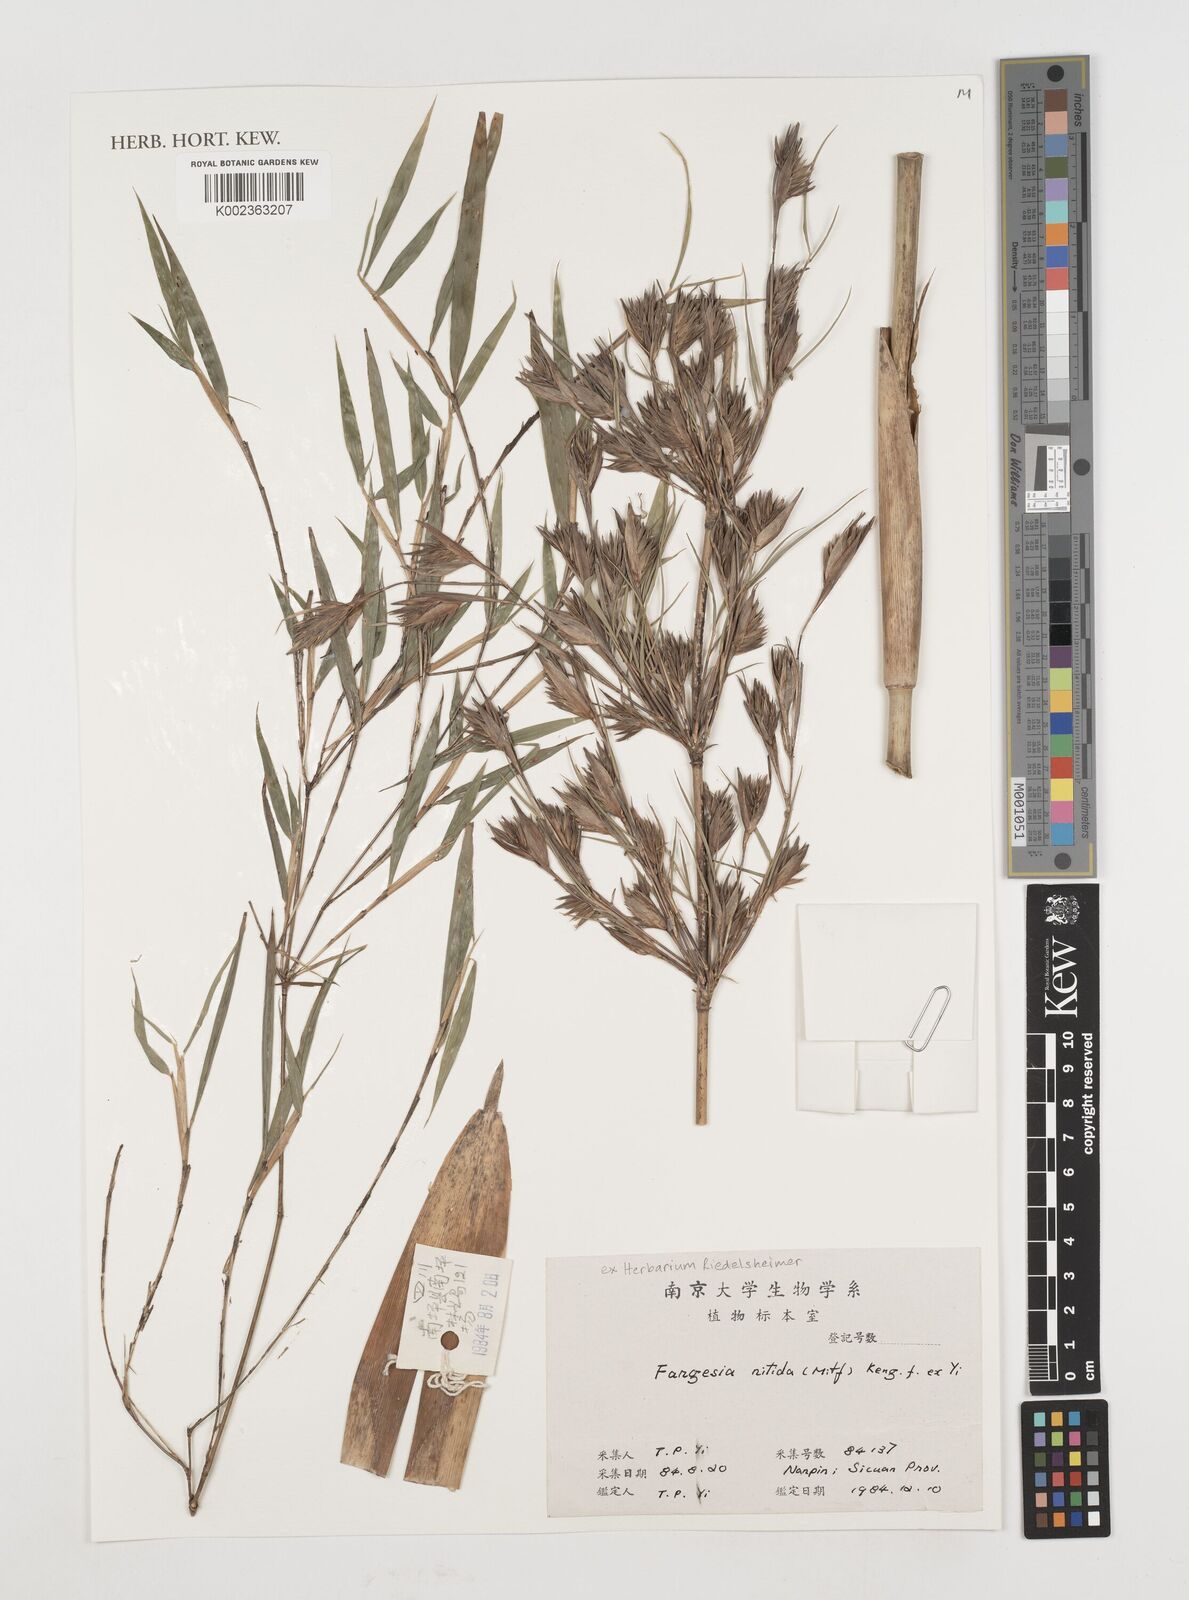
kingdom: Plantae
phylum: Tracheophyta
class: Liliopsida
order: Poales
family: Poaceae
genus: Fargesia
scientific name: Fargesia nitida ex
